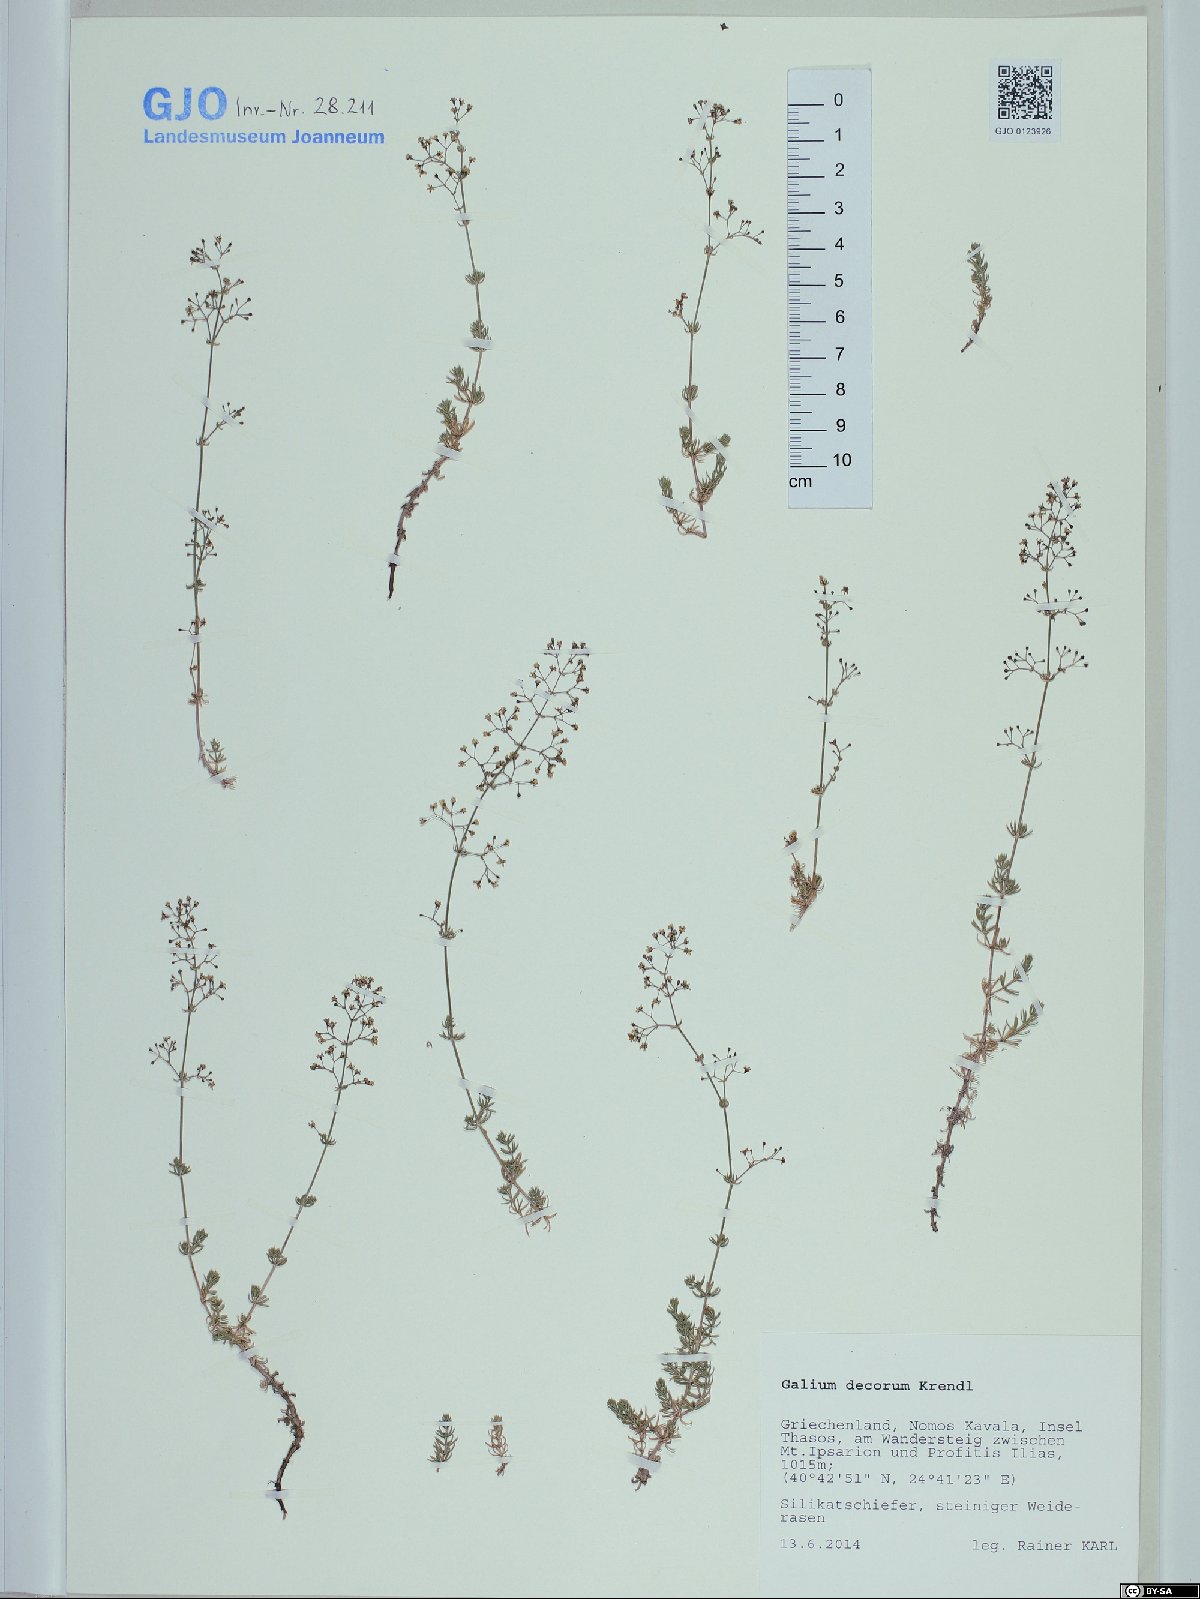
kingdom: Plantae
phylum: Tracheophyta
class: Magnoliopsida
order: Gentianales
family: Rubiaceae
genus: Galium
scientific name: Galium decorum
